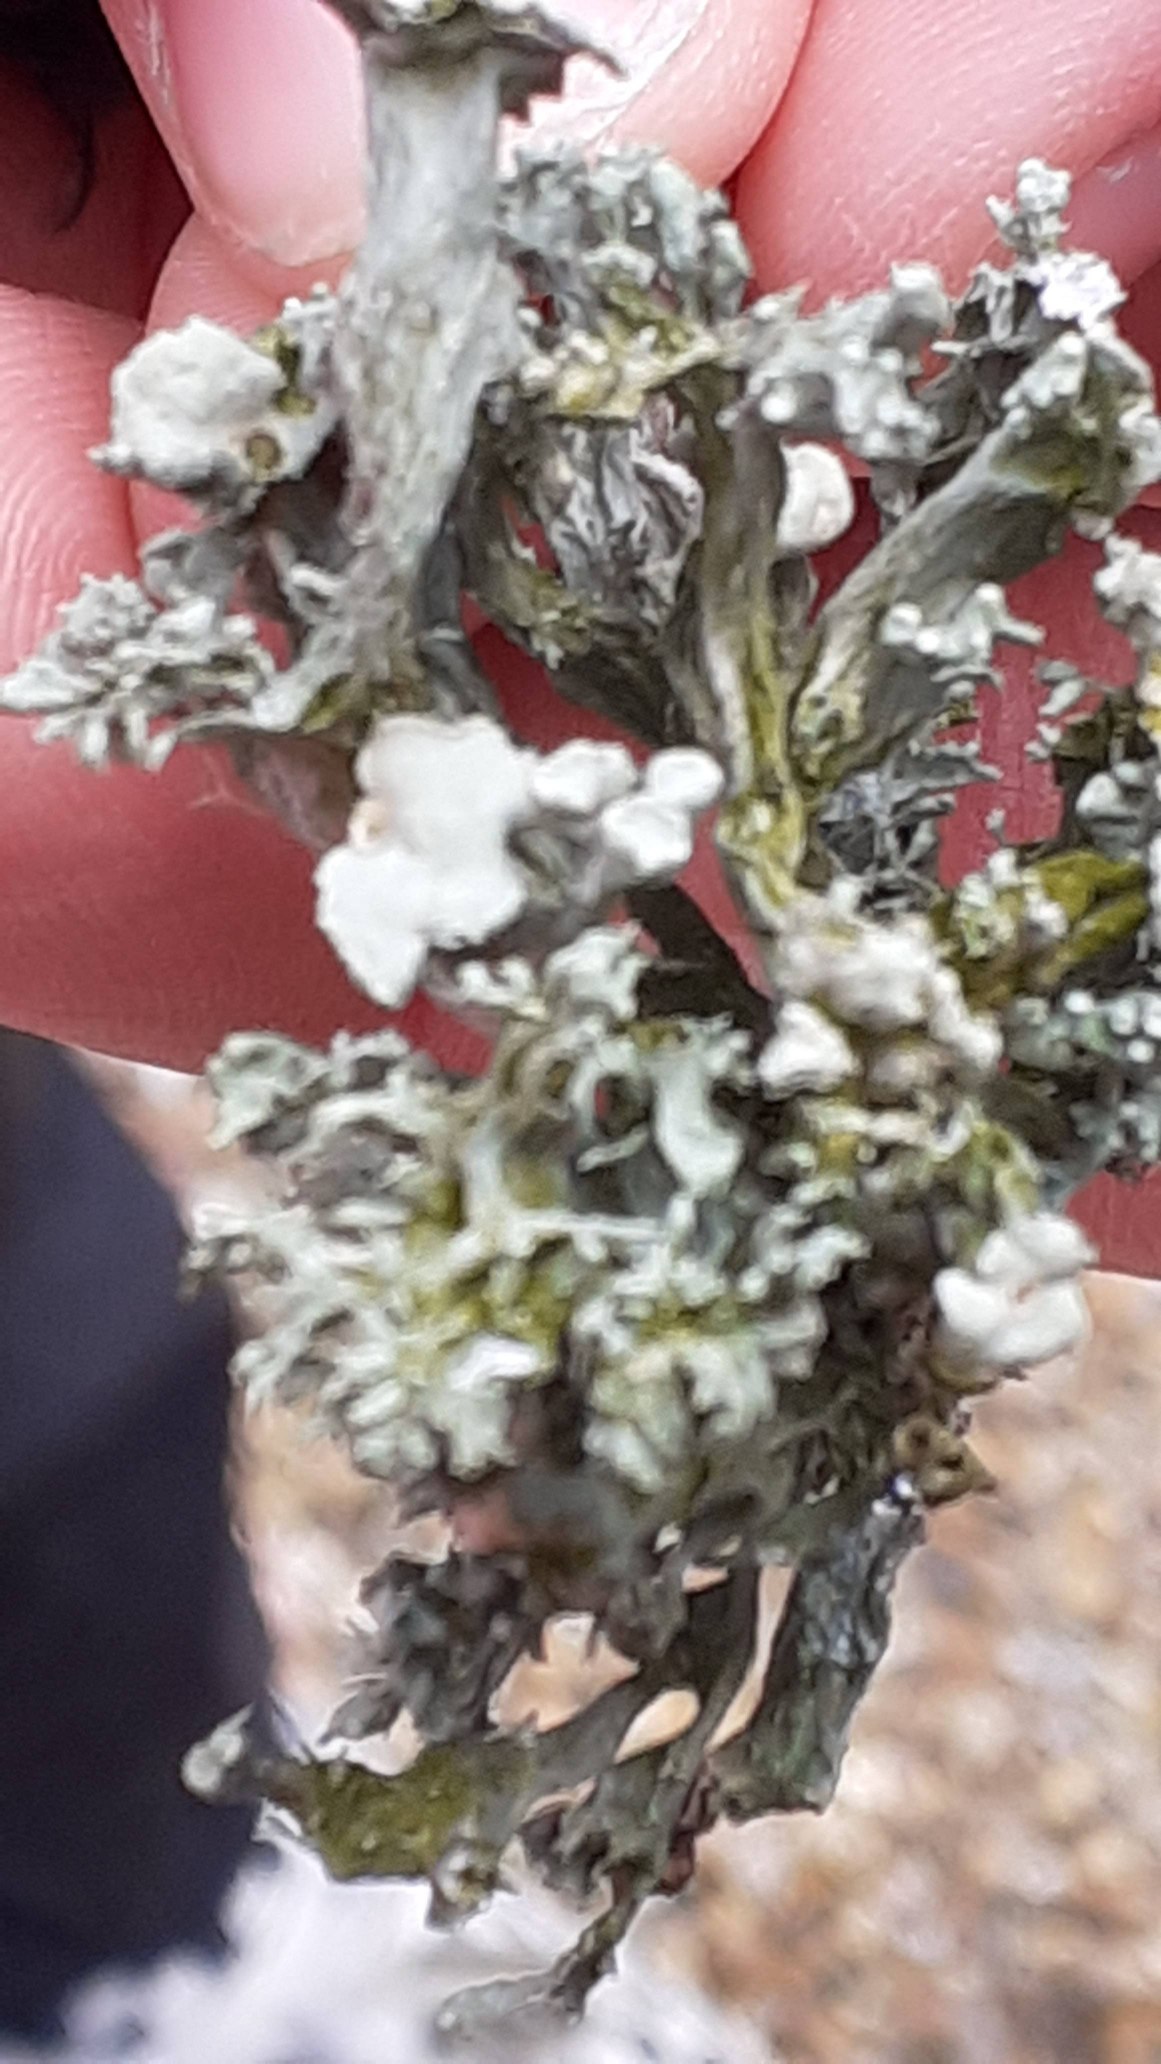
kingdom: Fungi
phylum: Ascomycota
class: Lecanoromycetes
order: Lecanorales
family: Ramalinaceae
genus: Ramalina
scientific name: Ramalina fastigiata
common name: Tue-grenlav
